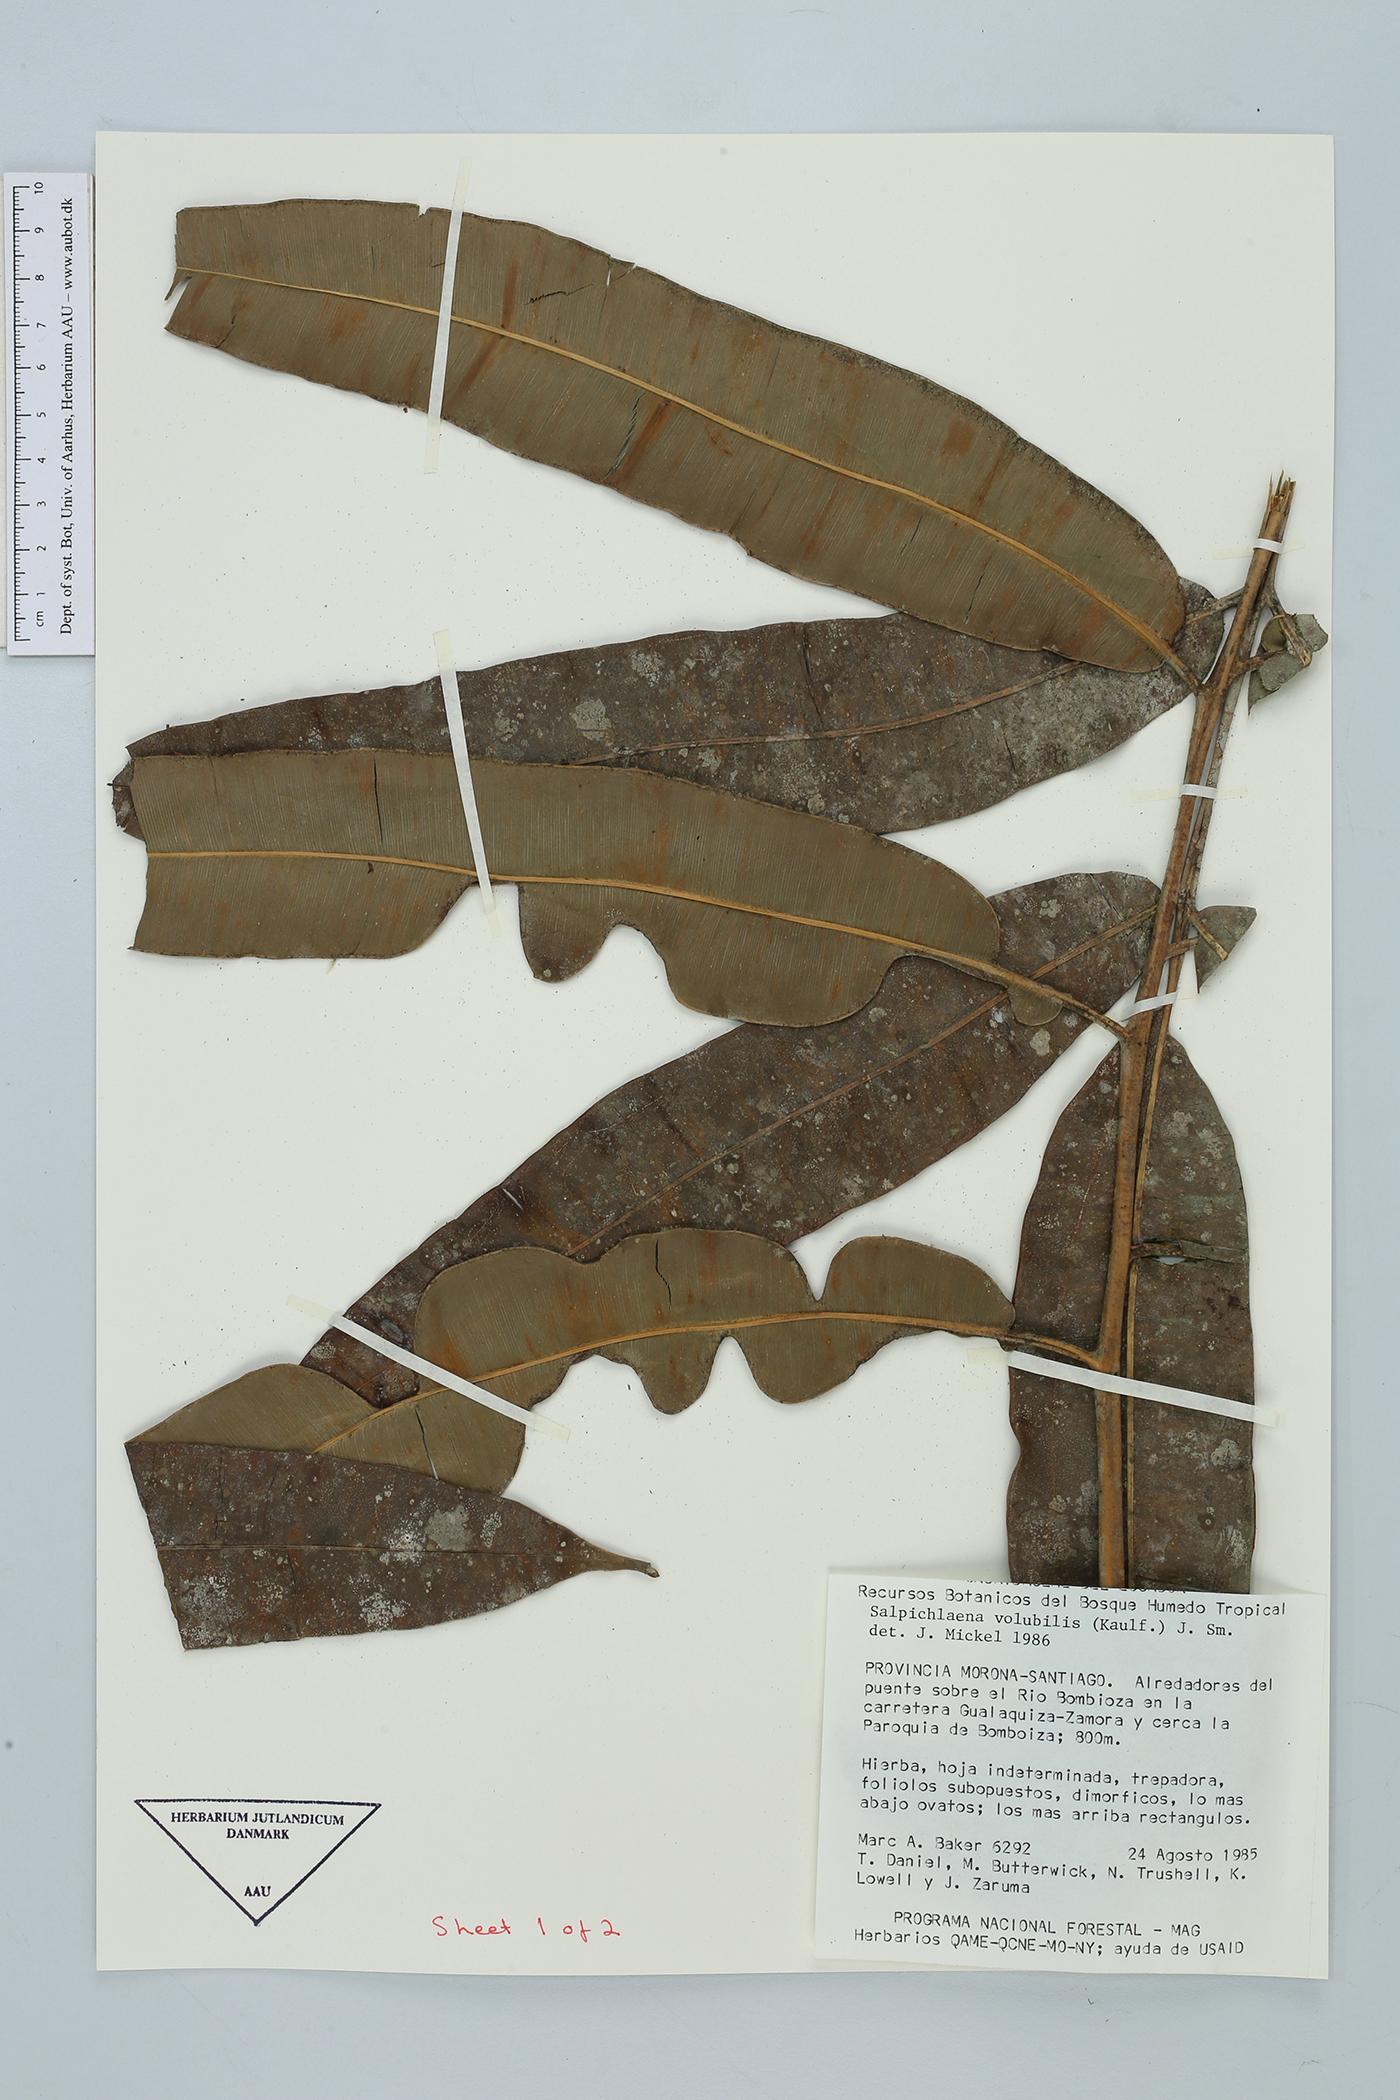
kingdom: Plantae
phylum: Tracheophyta
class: Polypodiopsida
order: Polypodiales
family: Blechnaceae
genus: Salpichlaena
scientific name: Salpichlaena volubilis
